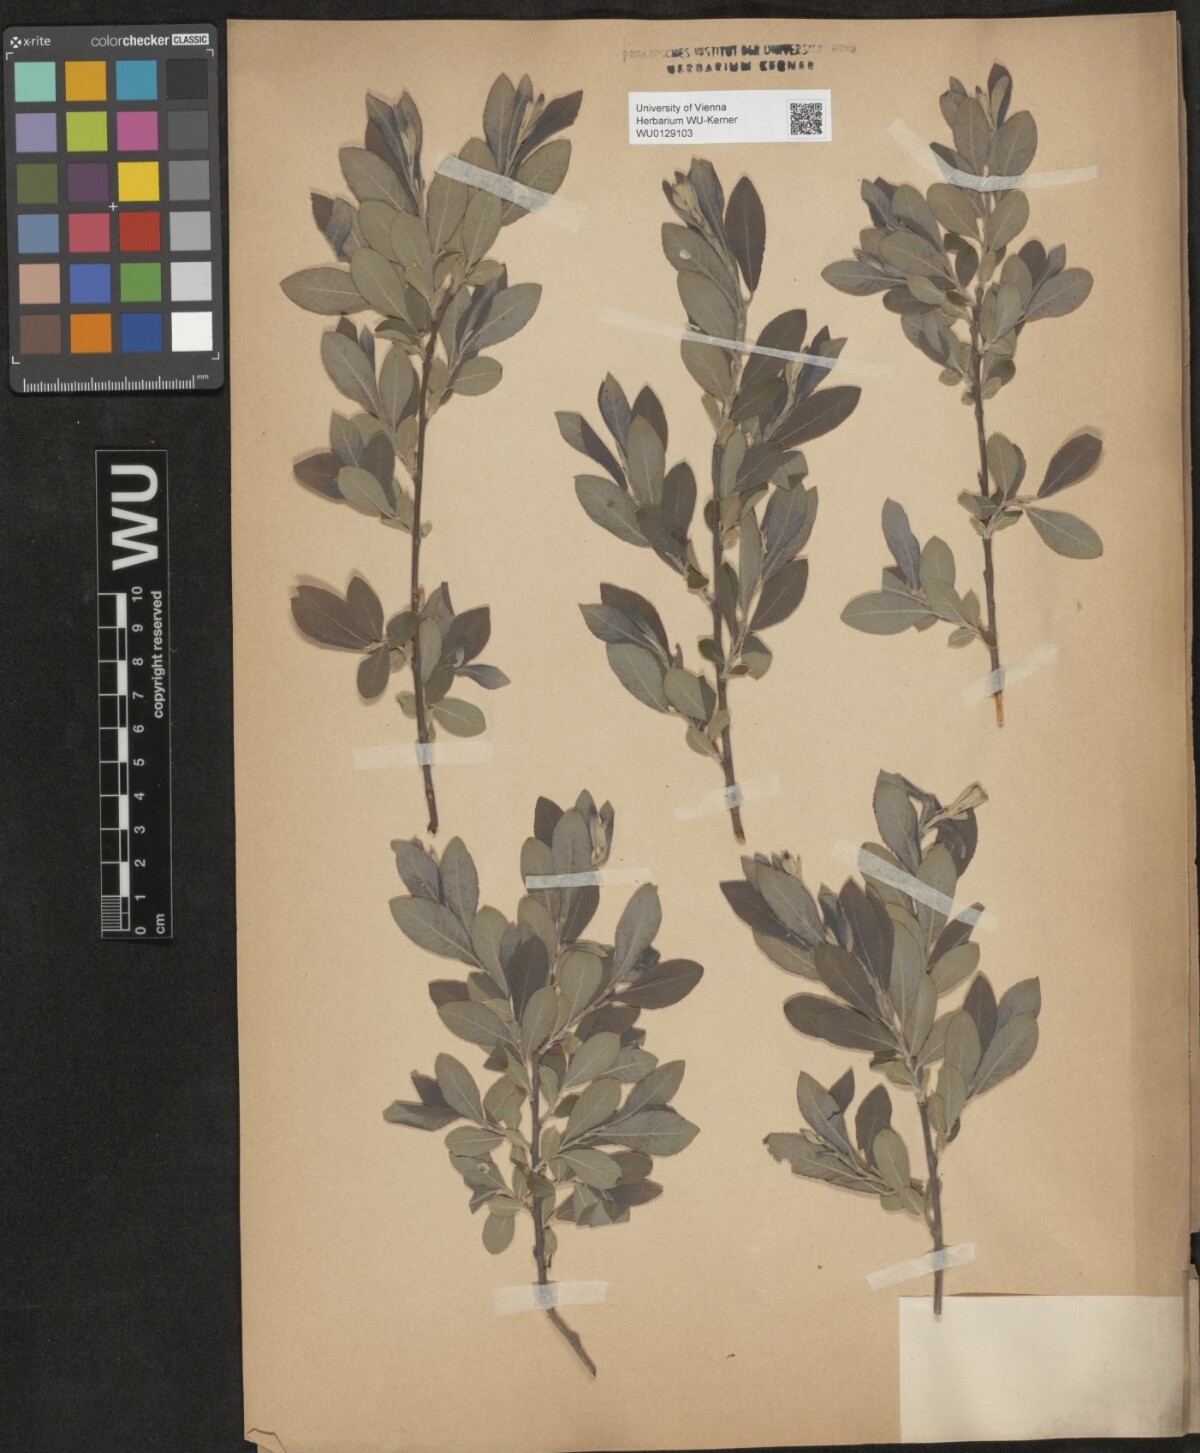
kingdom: Plantae
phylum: Tracheophyta
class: Magnoliopsida
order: Malpighiales
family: Salicaceae
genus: Salix
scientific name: Salix cinerea
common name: Common sallow
